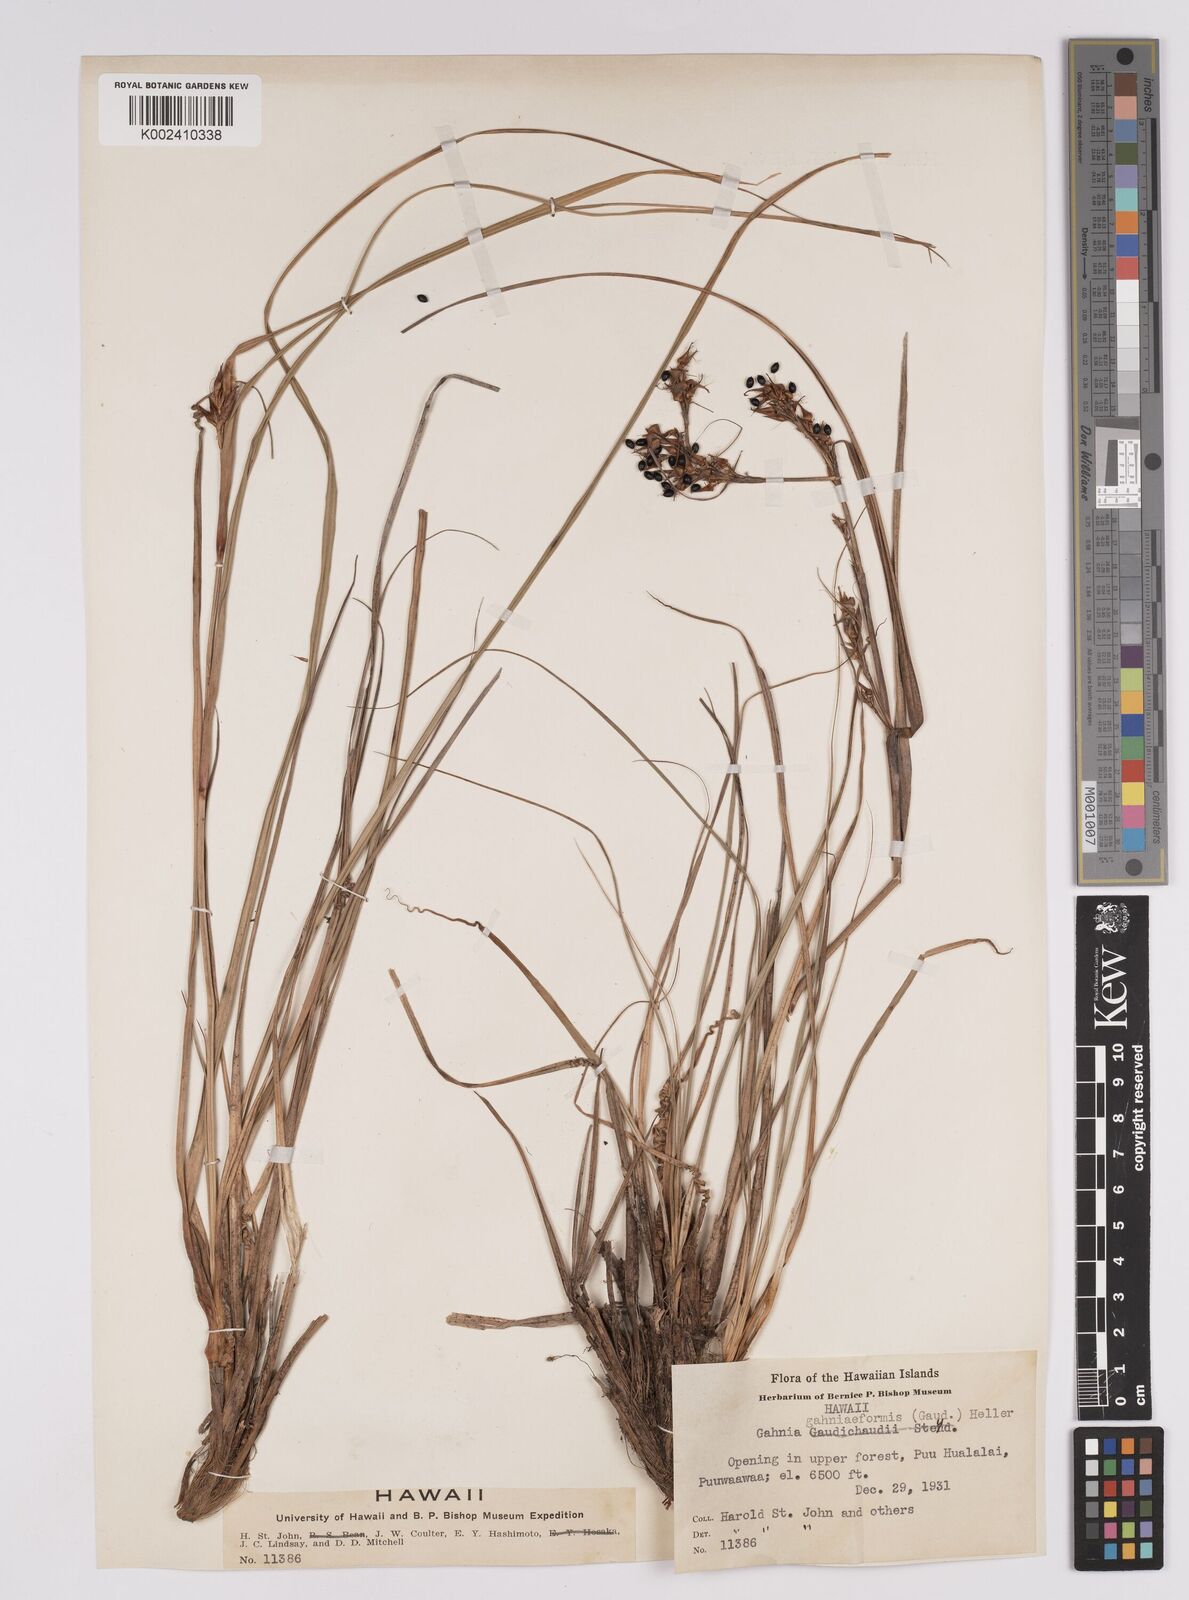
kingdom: Plantae
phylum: Tracheophyta
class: Liliopsida
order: Poales
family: Cyperaceae
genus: Morelotia
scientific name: Morelotia gahniiformis
